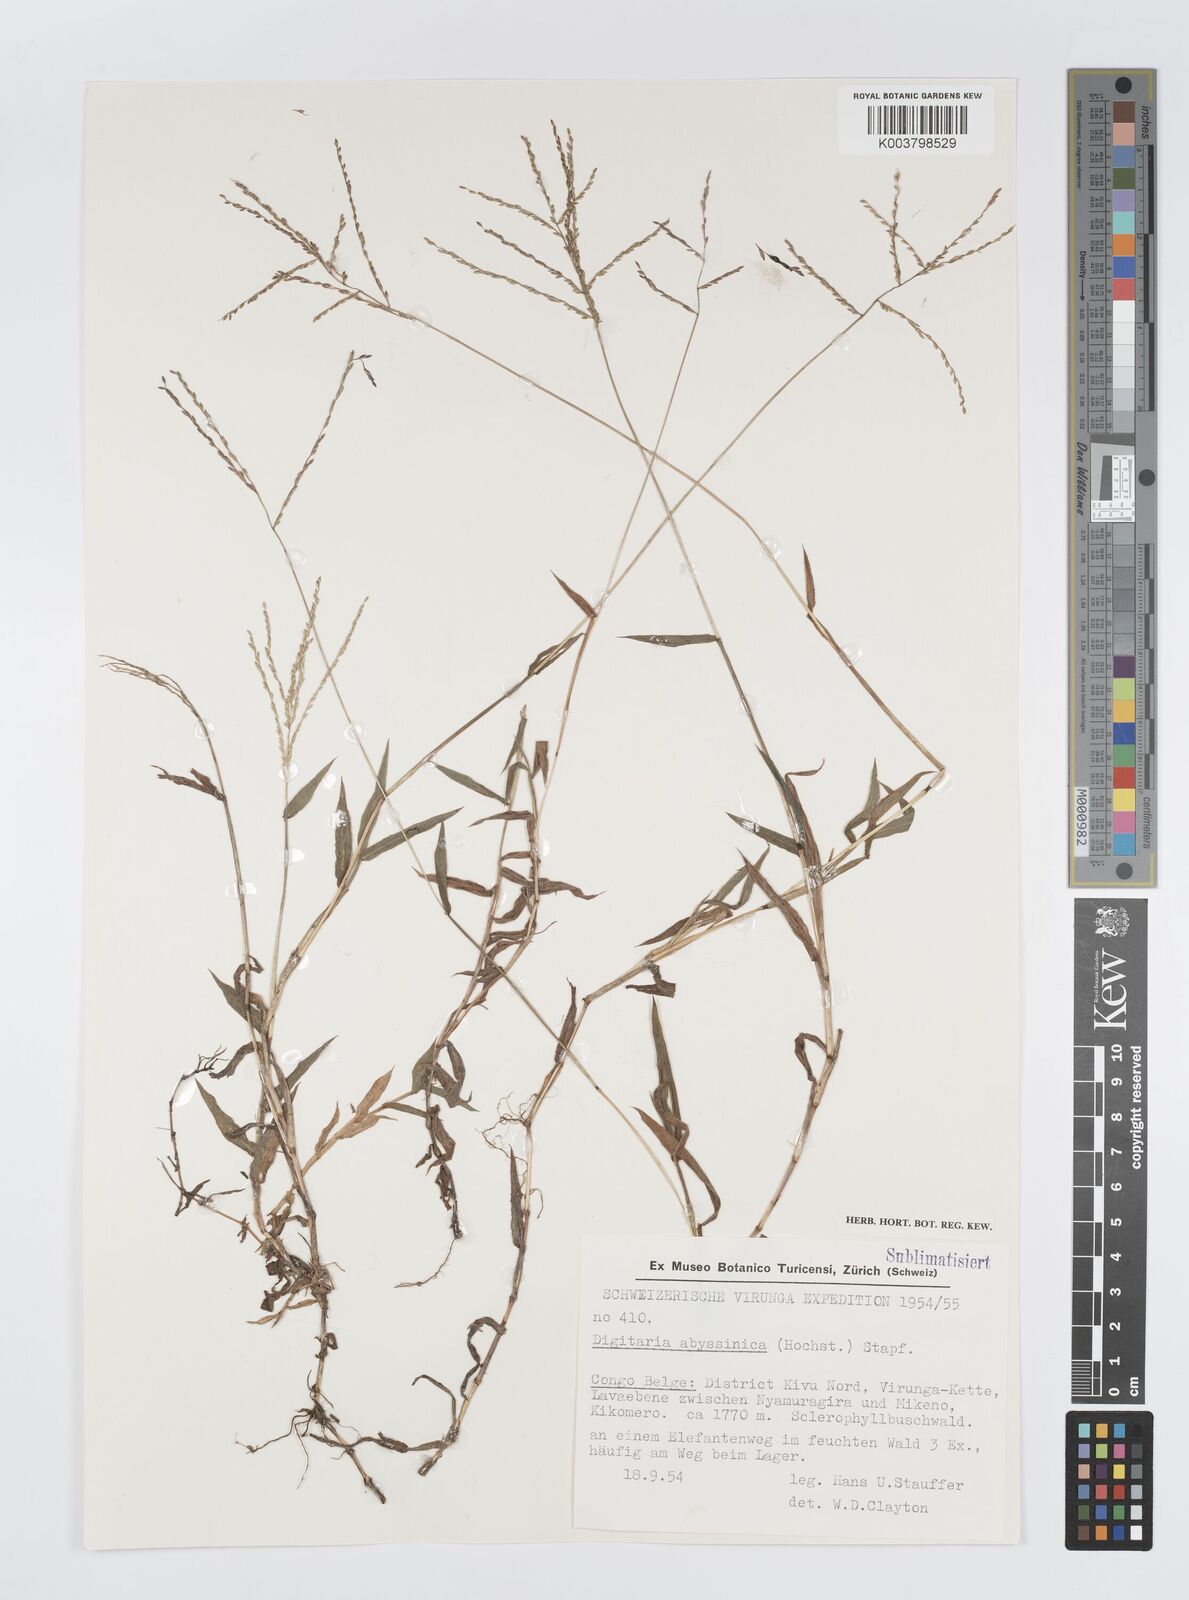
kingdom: Plantae
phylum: Tracheophyta
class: Liliopsida
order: Poales
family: Poaceae
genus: Digitaria
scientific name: Digitaria abyssinica
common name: African couchgrass
